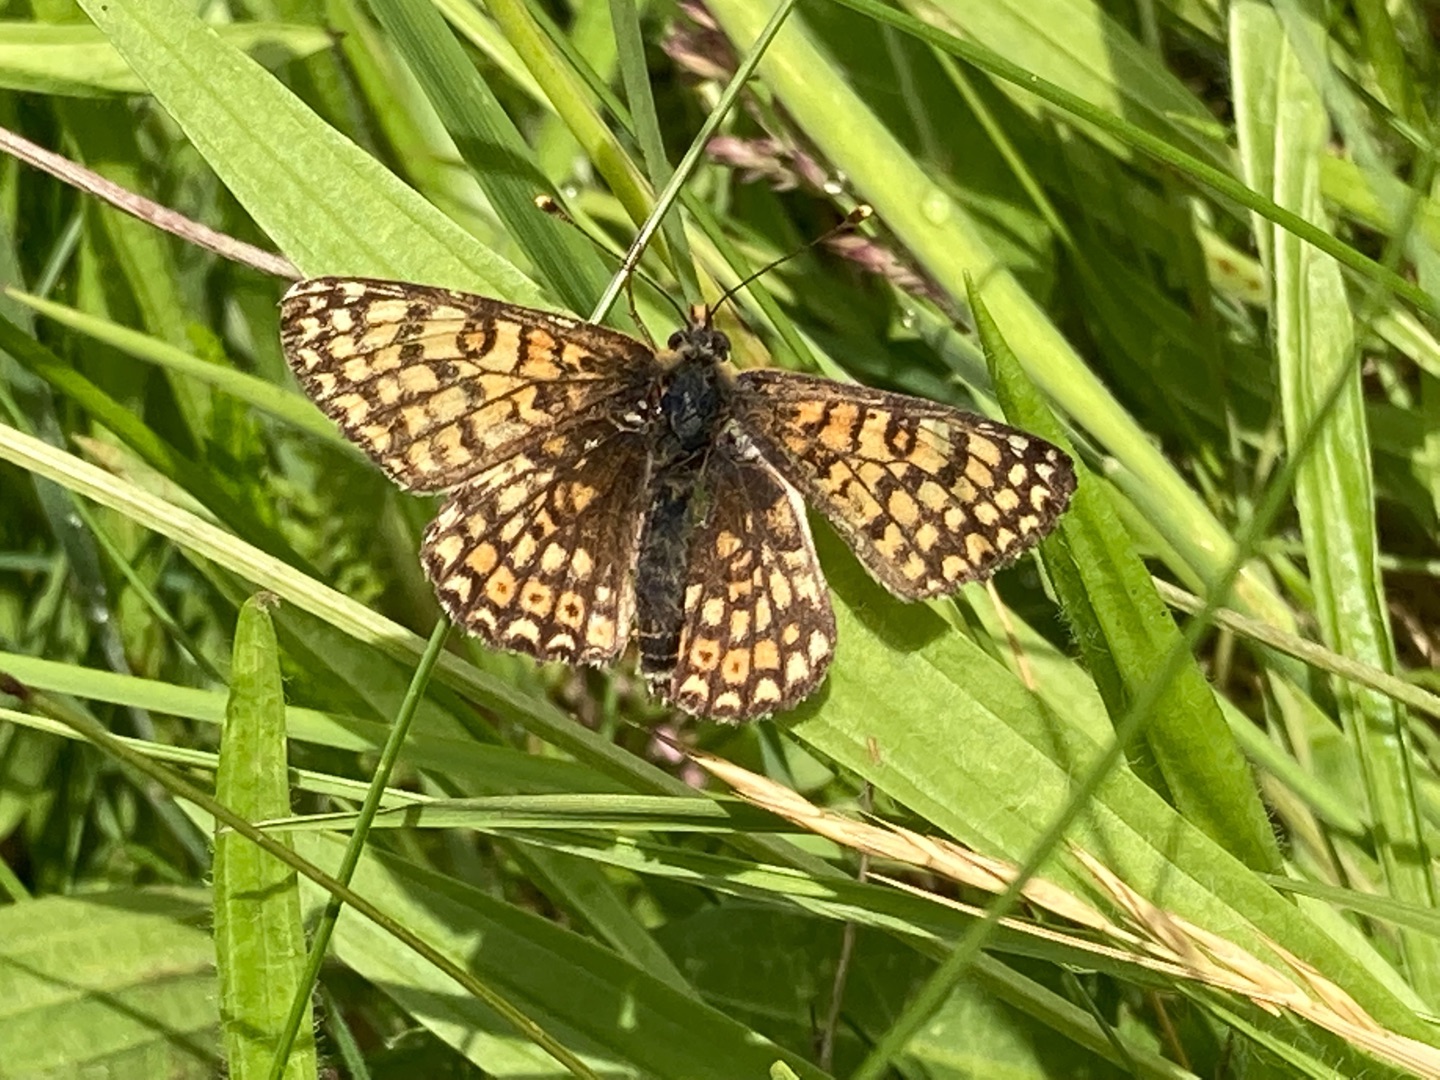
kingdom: Animalia
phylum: Arthropoda
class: Insecta
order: Lepidoptera
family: Nymphalidae
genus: Melitaea
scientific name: Melitaea cinxia
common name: Okkergul pletvinge
